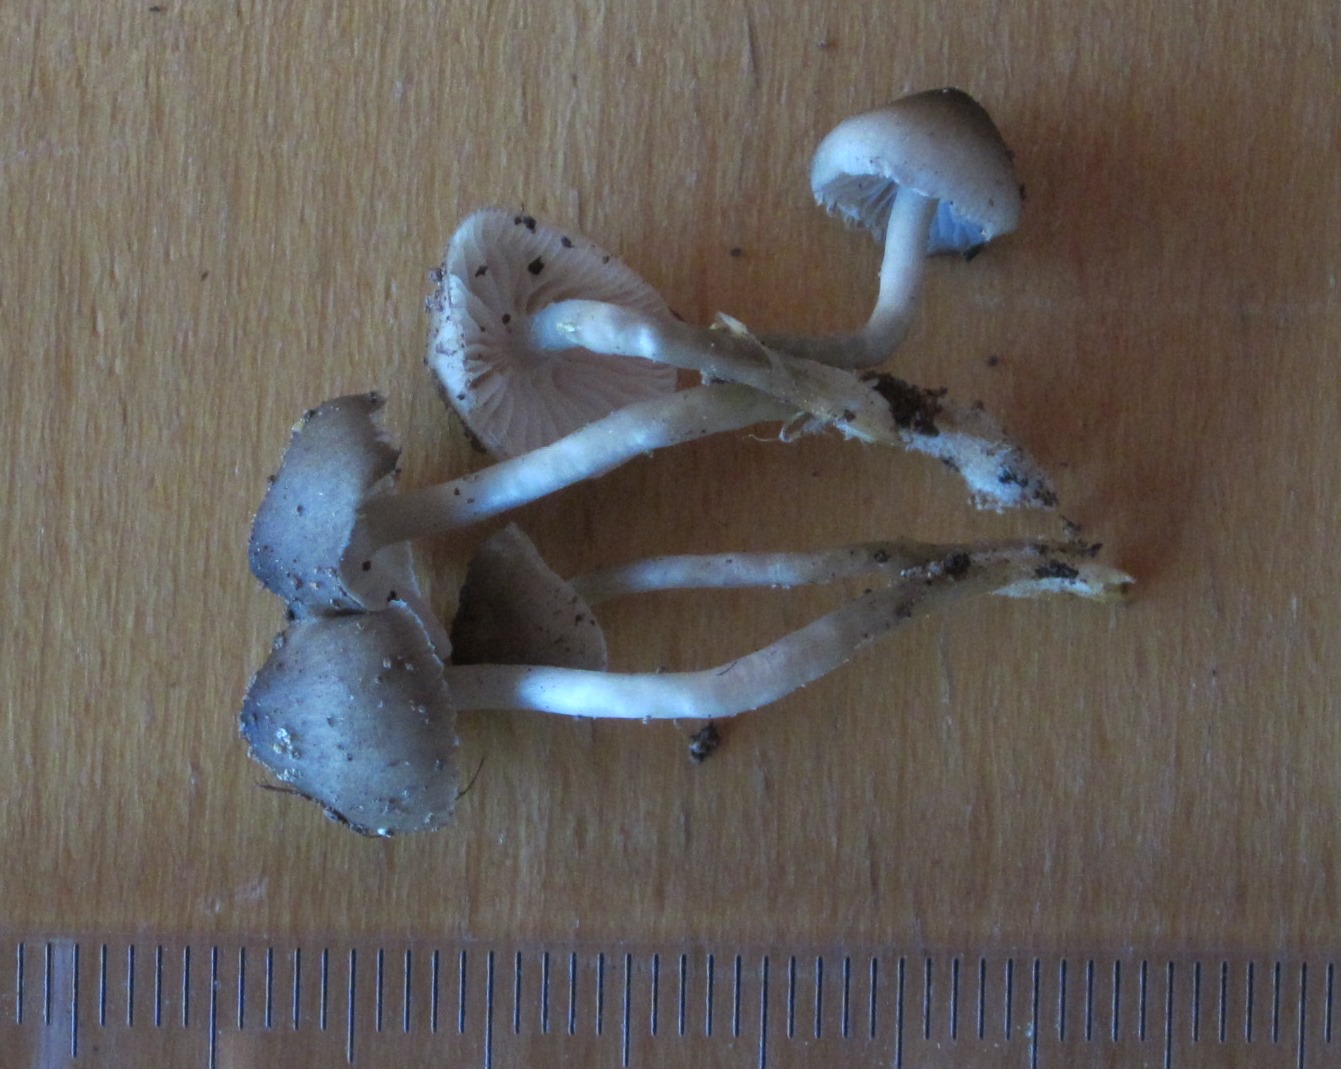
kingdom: Fungi
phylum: Basidiomycota
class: Agaricomycetes
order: Agaricales
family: Mycenaceae
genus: Mycena
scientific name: Mycena tintinnabulum
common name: vinter-huesvamp
